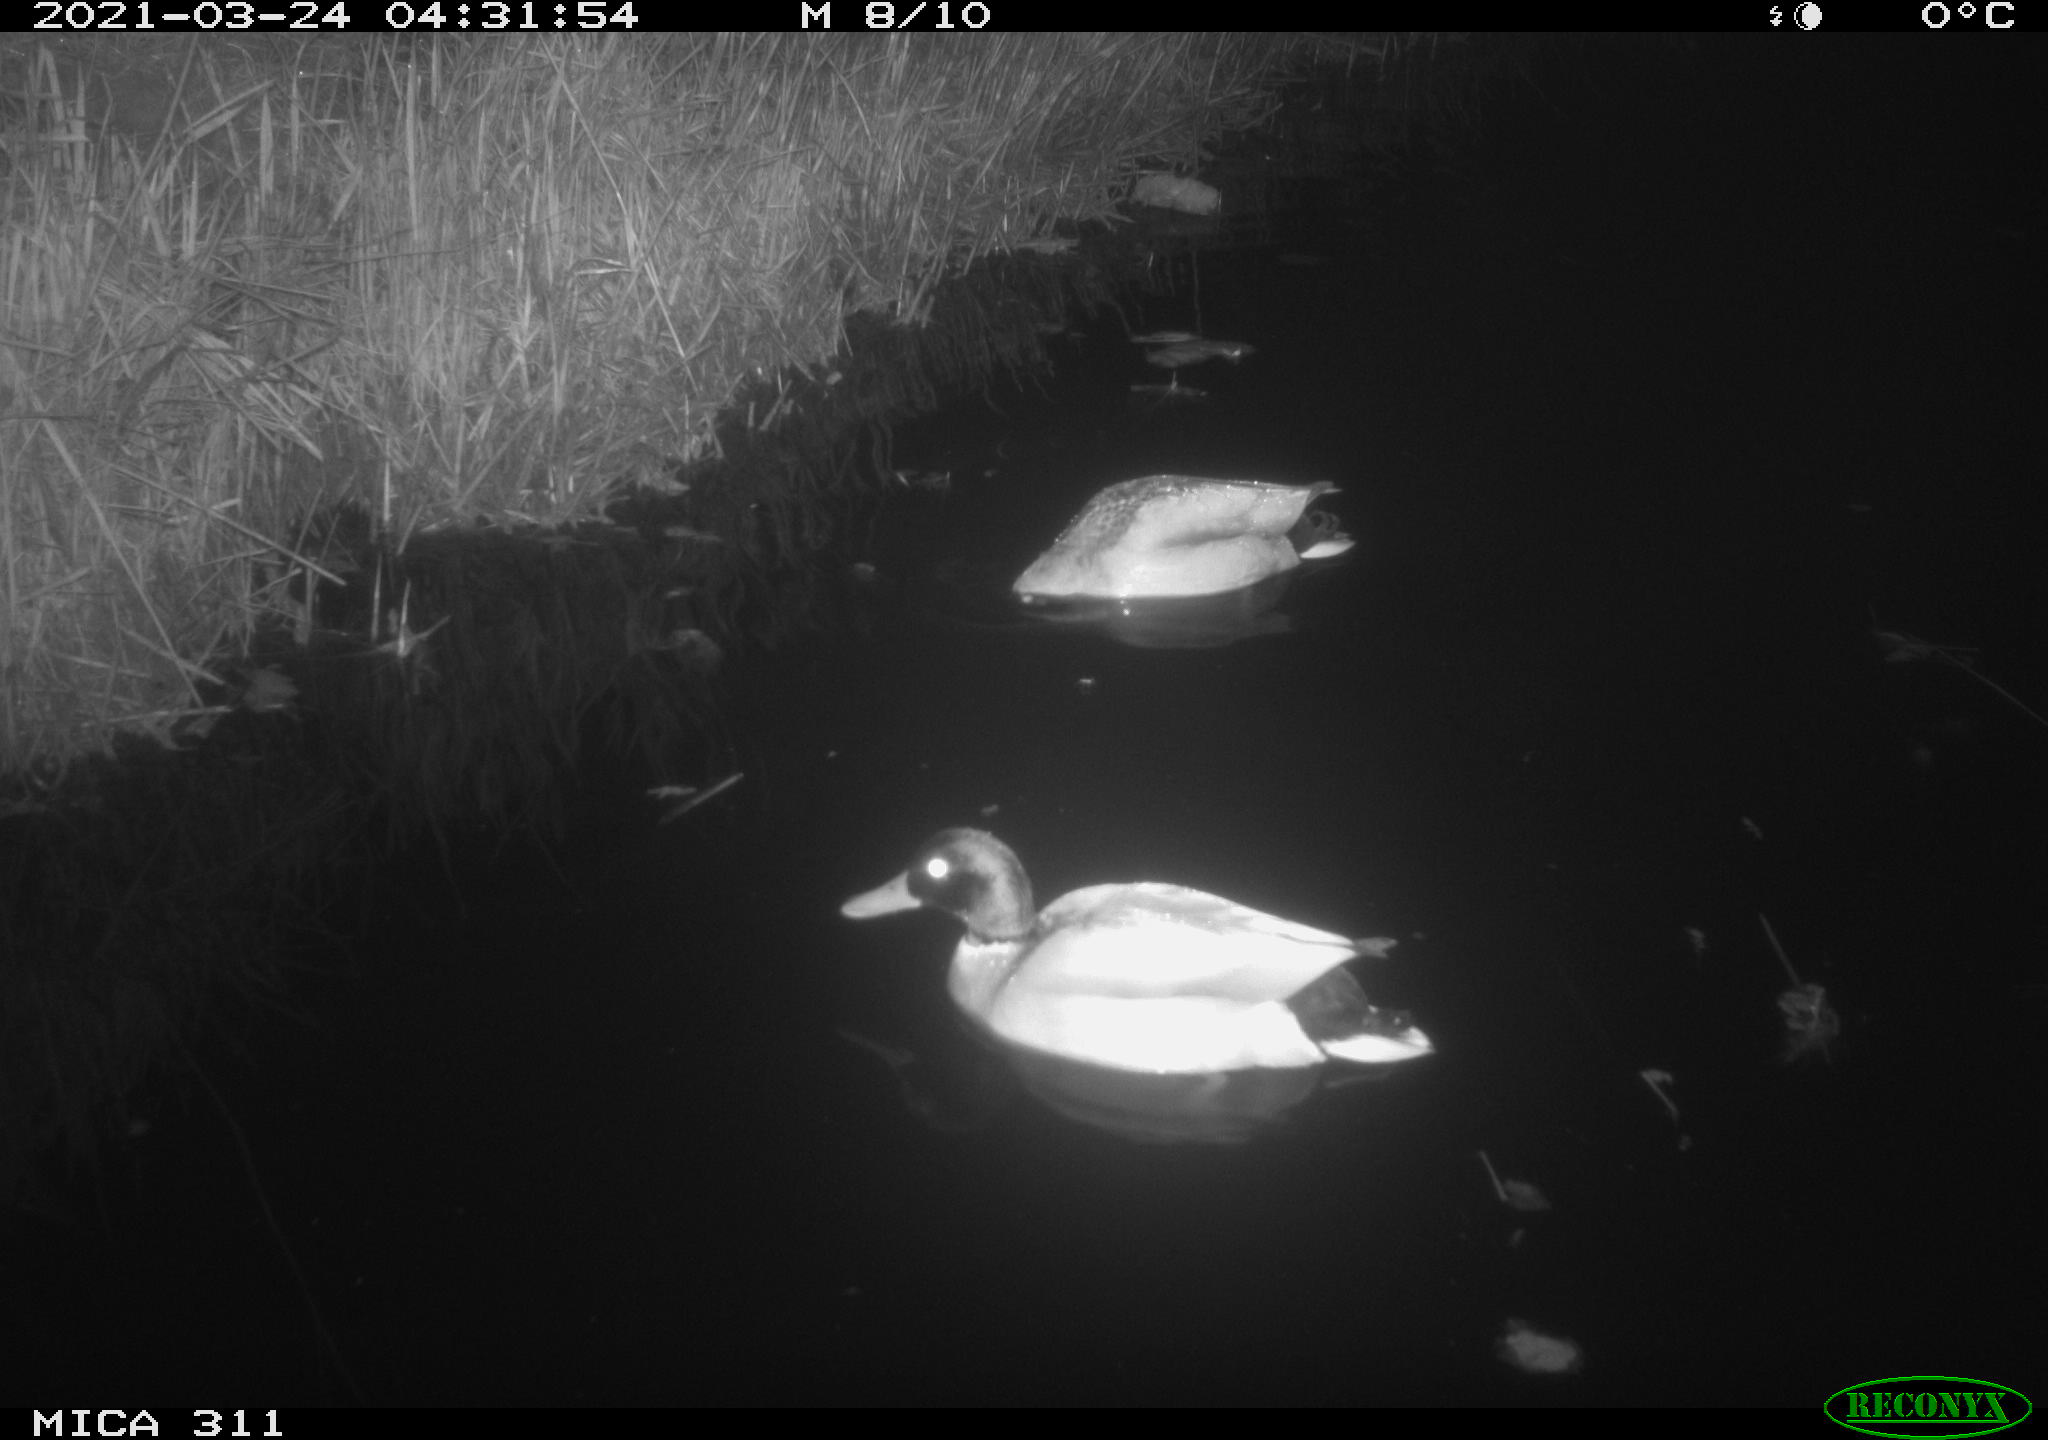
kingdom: Animalia
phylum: Chordata
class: Aves
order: Anseriformes
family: Anatidae
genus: Anas
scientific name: Anas
